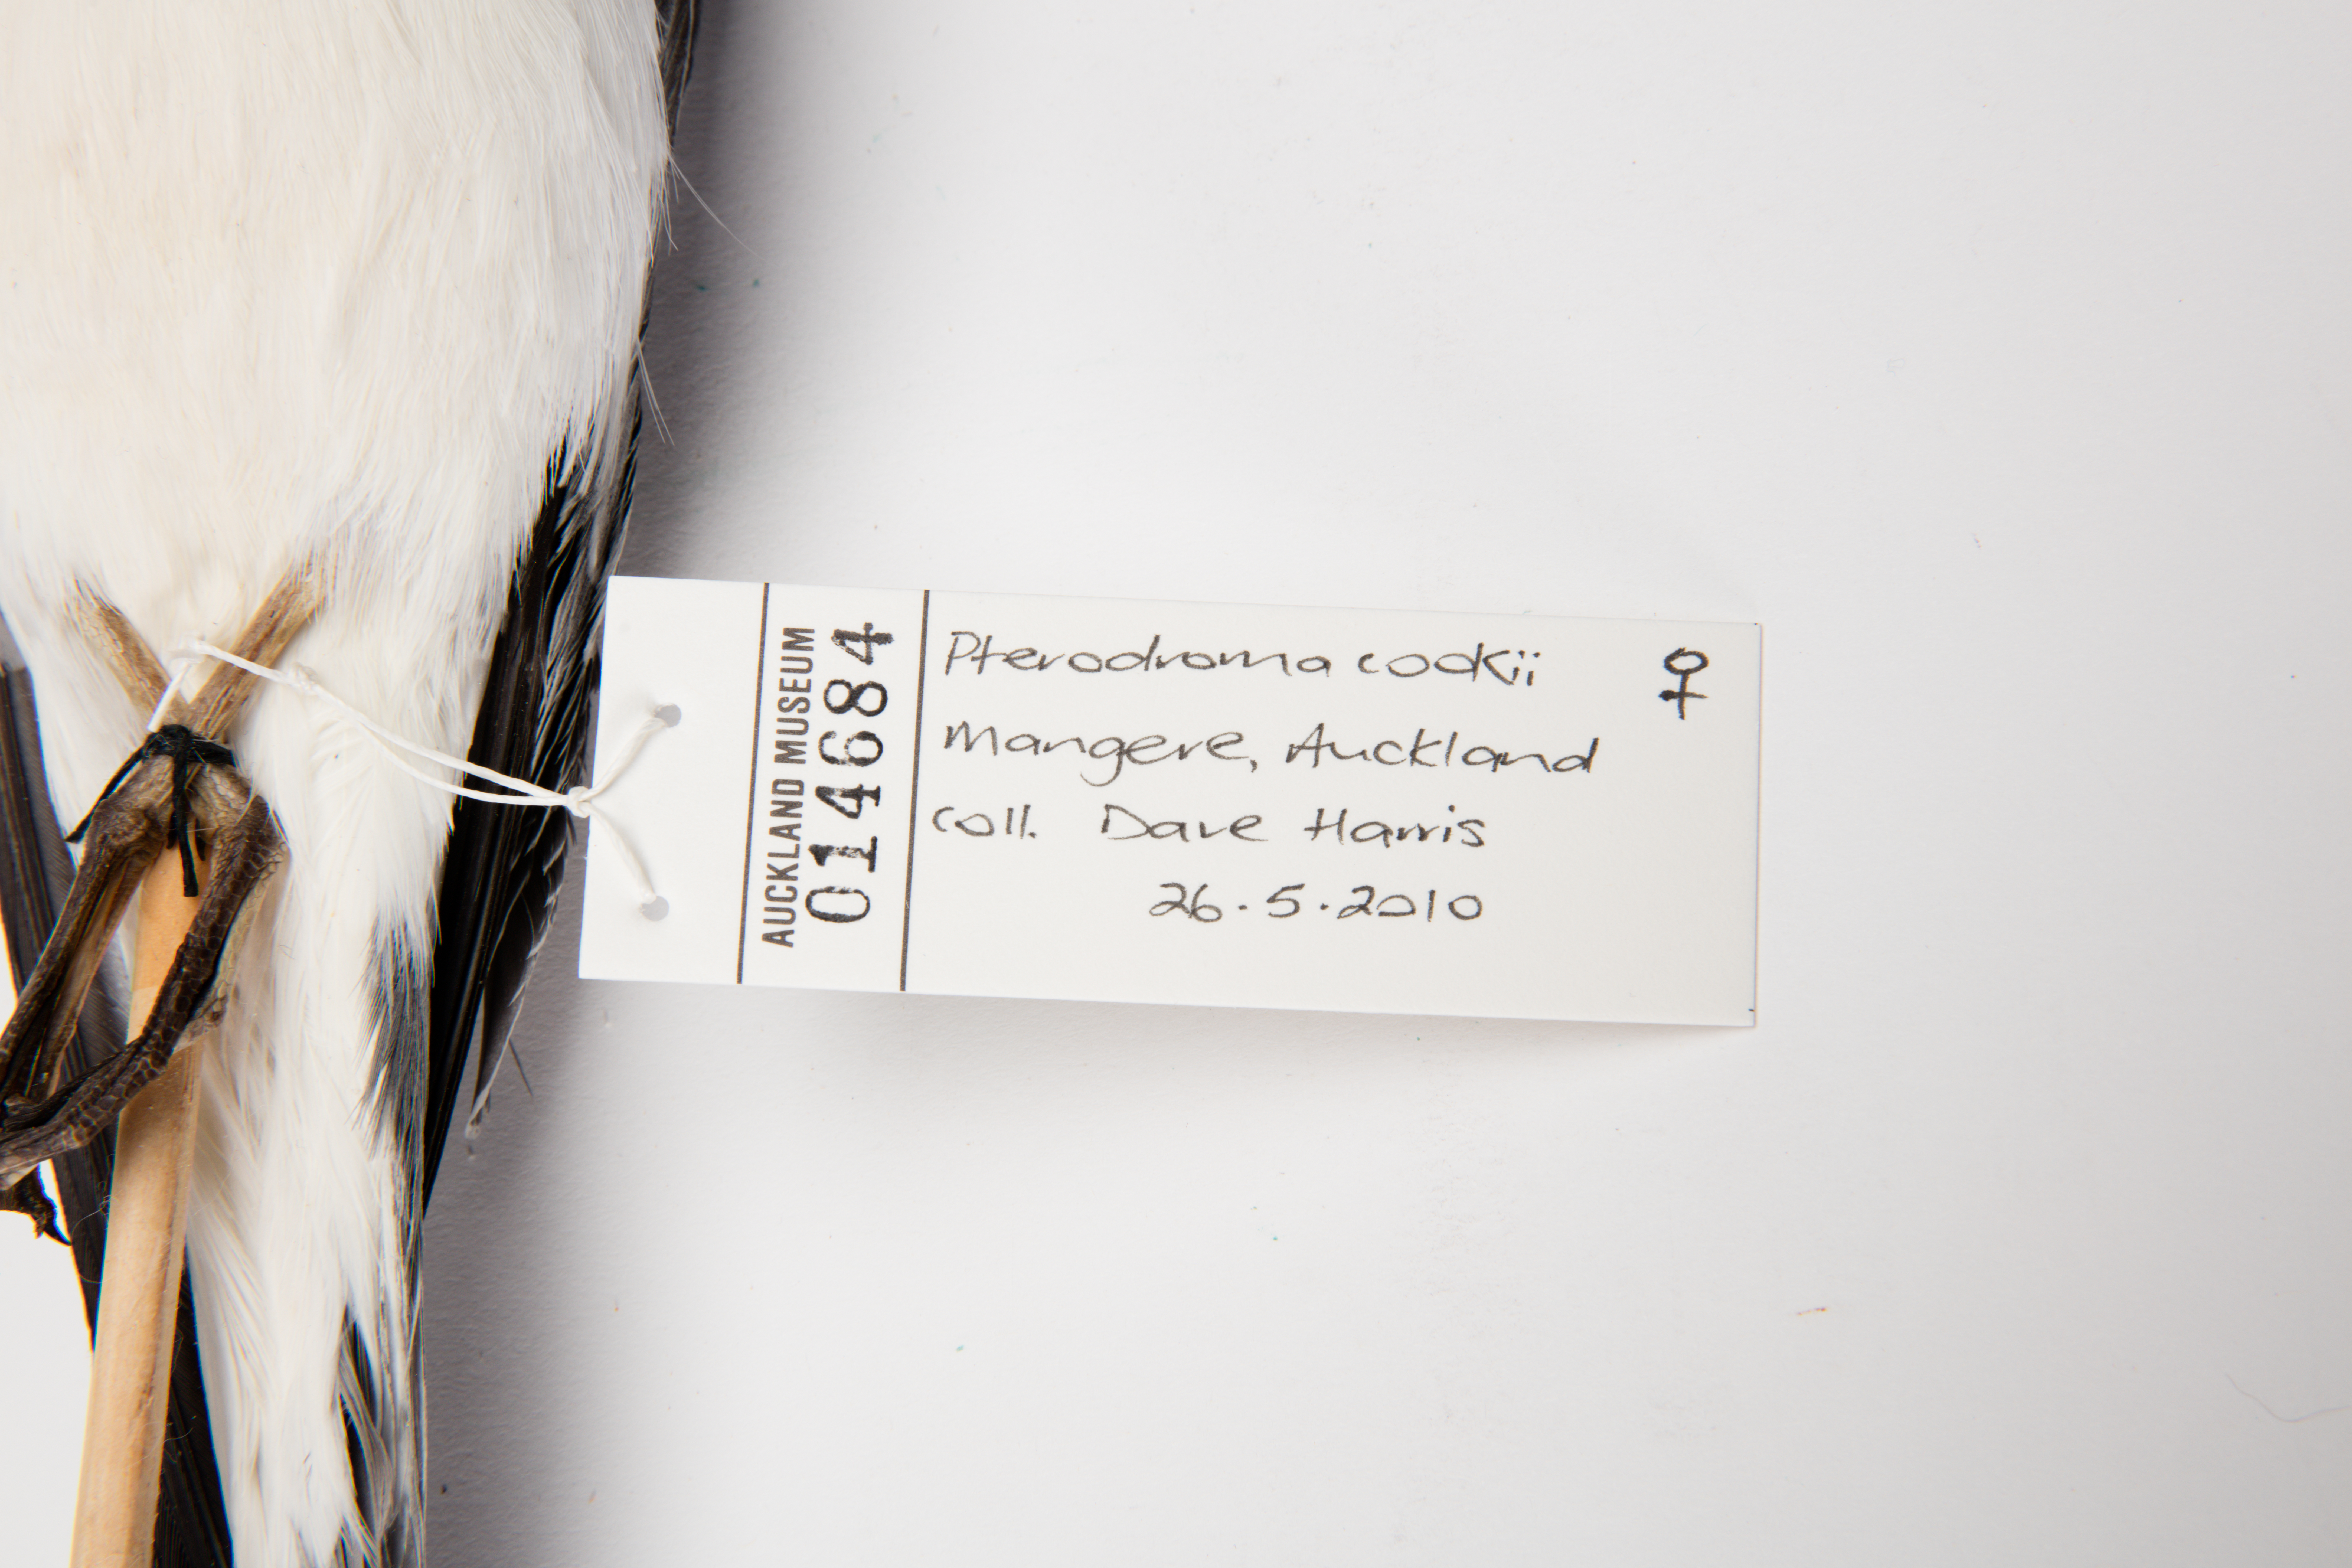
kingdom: Animalia
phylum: Chordata
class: Aves
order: Procellariiformes
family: Procellariidae
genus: Pterodroma
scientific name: Pterodroma cookii
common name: Cook's petrel
